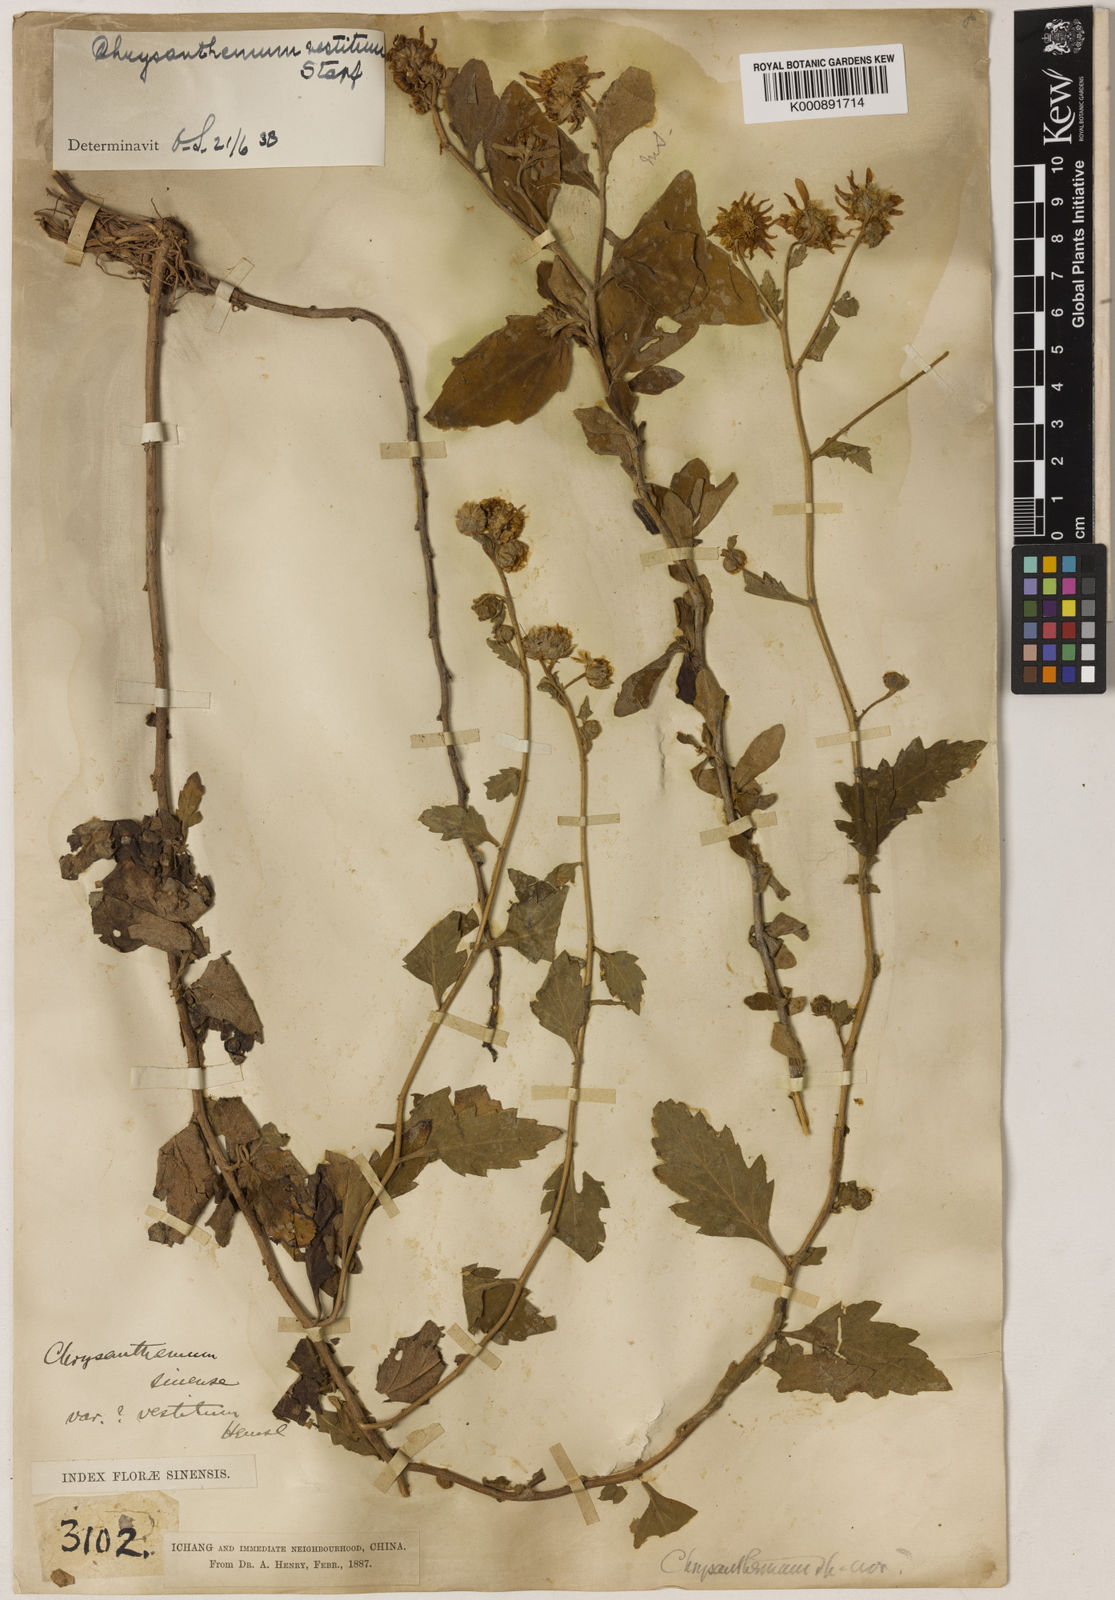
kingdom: Plantae
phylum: Tracheophyta
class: Magnoliopsida
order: Asterales
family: Asteraceae
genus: Chrysanthemum
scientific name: Chrysanthemum vestitum
